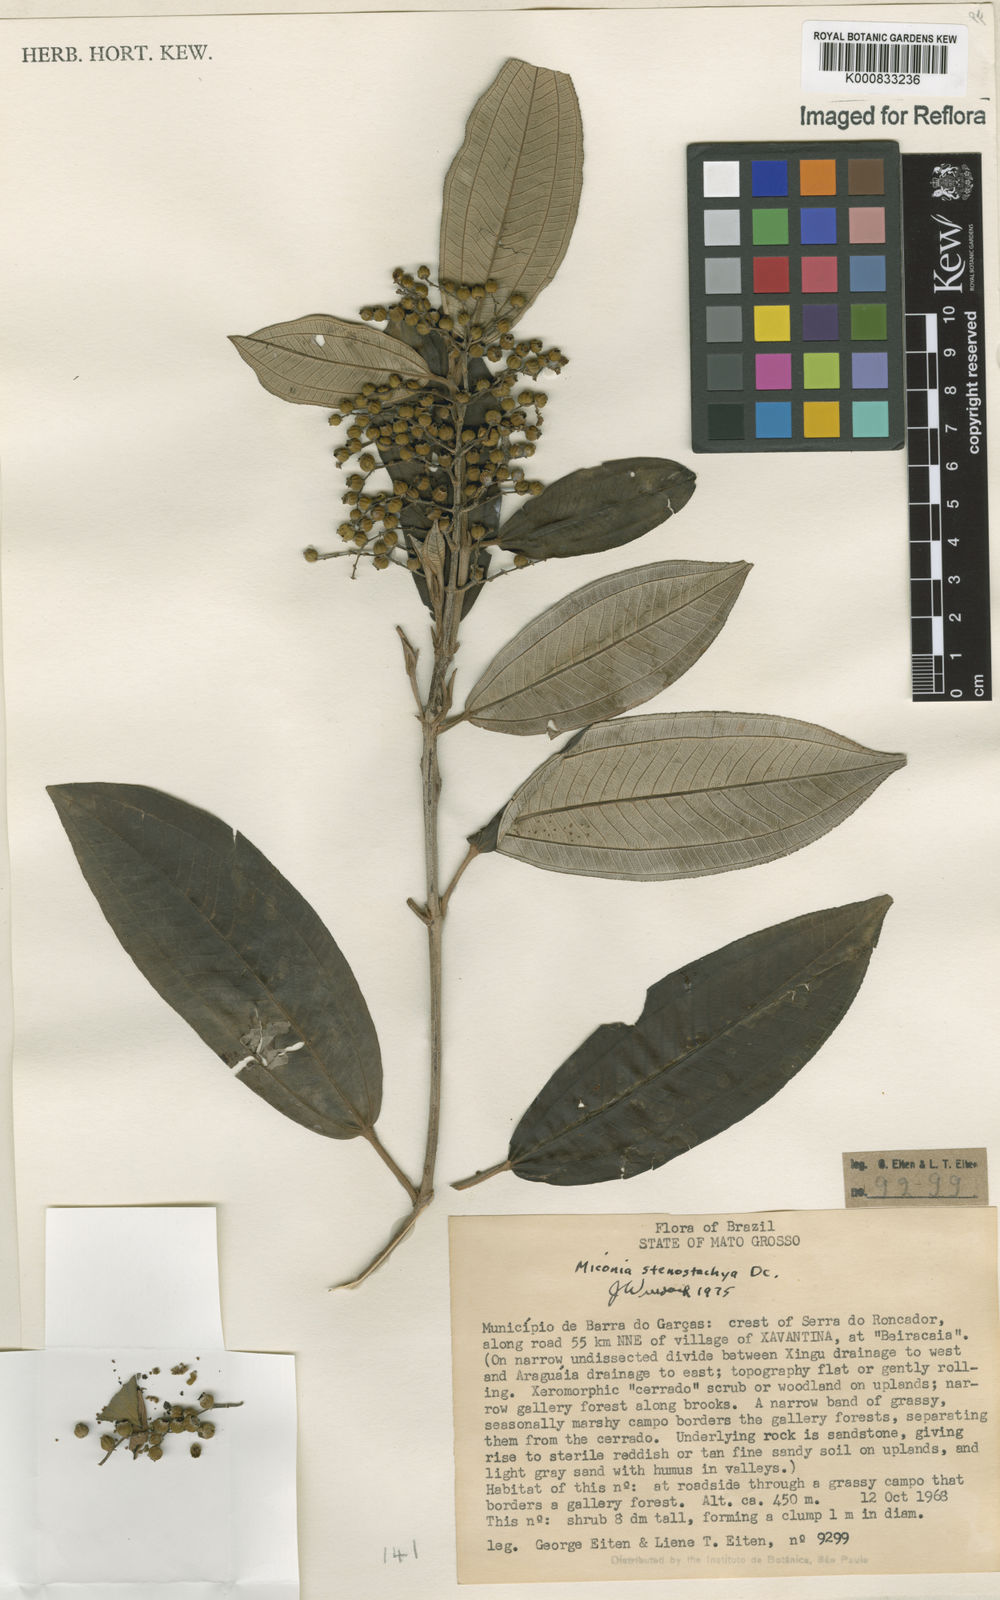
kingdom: Plantae
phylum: Tracheophyta
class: Magnoliopsida
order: Myrtales
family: Melastomataceae
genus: Miconia
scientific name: Miconia stenostachya
